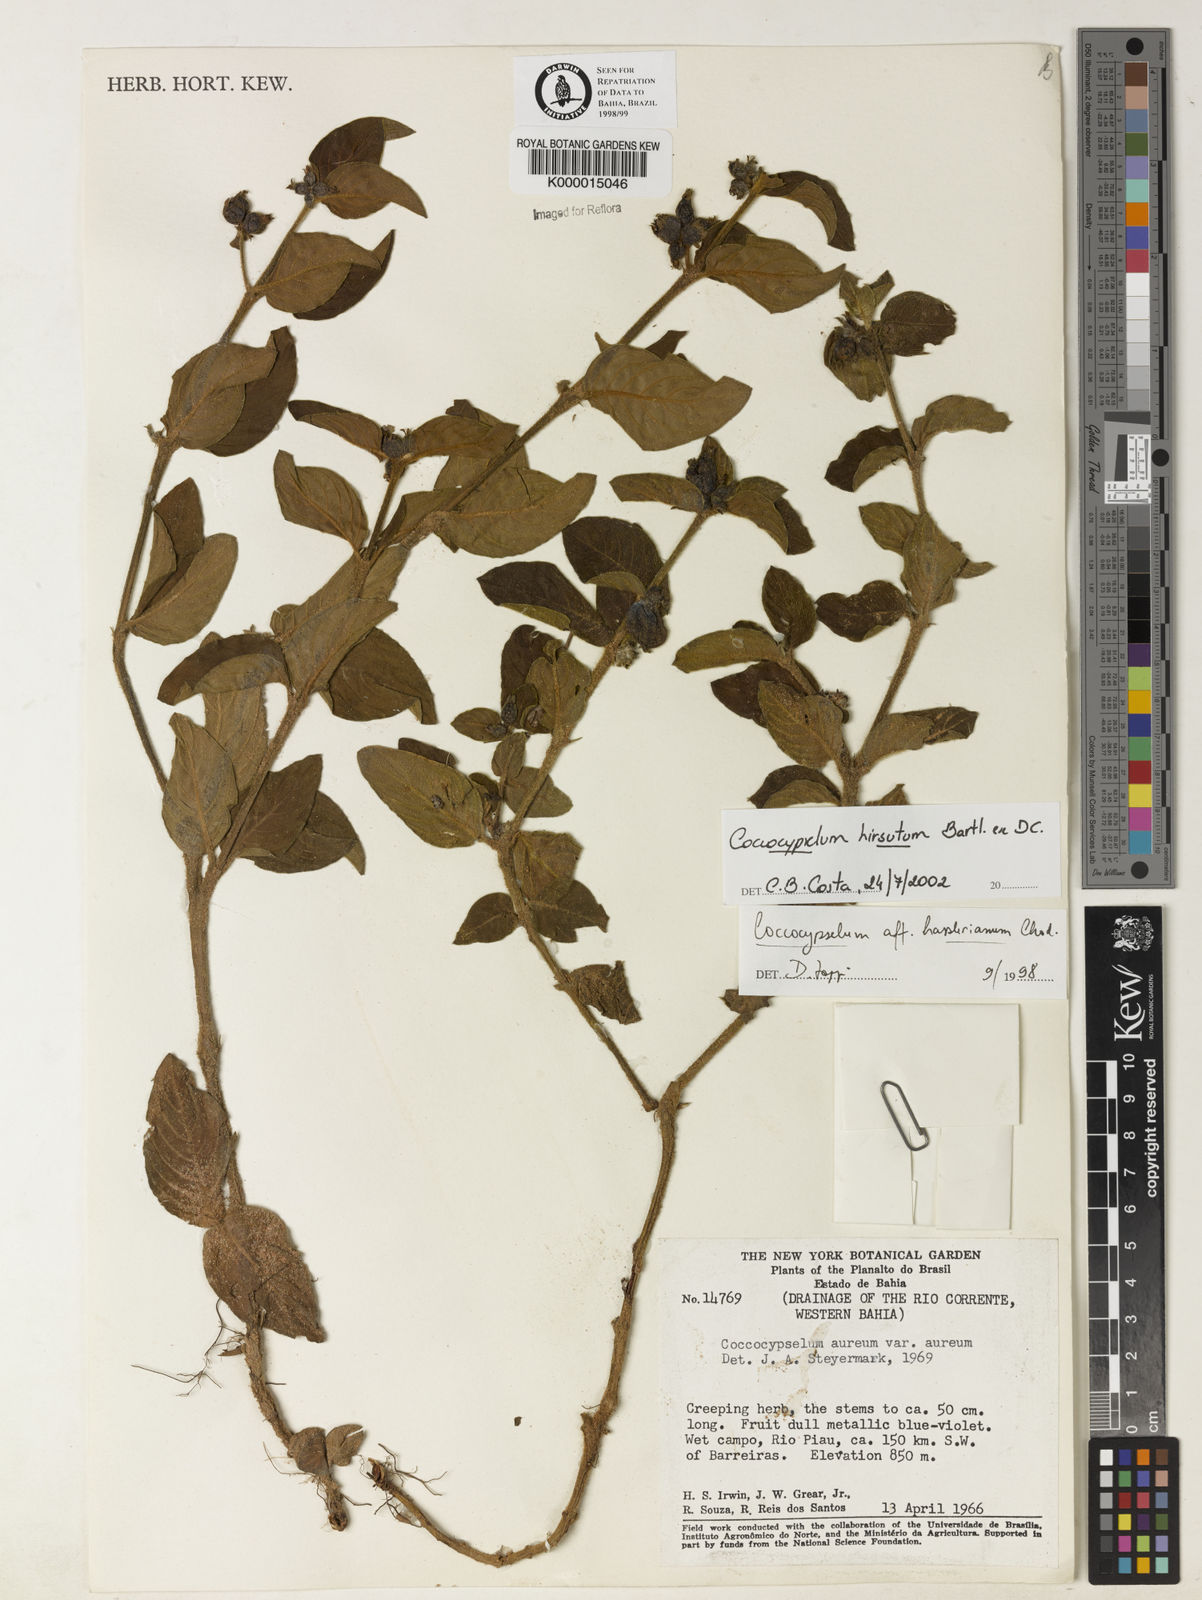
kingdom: Plantae
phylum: Tracheophyta
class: Magnoliopsida
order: Gentianales
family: Rubiaceae
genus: Coccocypselum
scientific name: Coccocypselum hirsutum
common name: Yerba de guava
